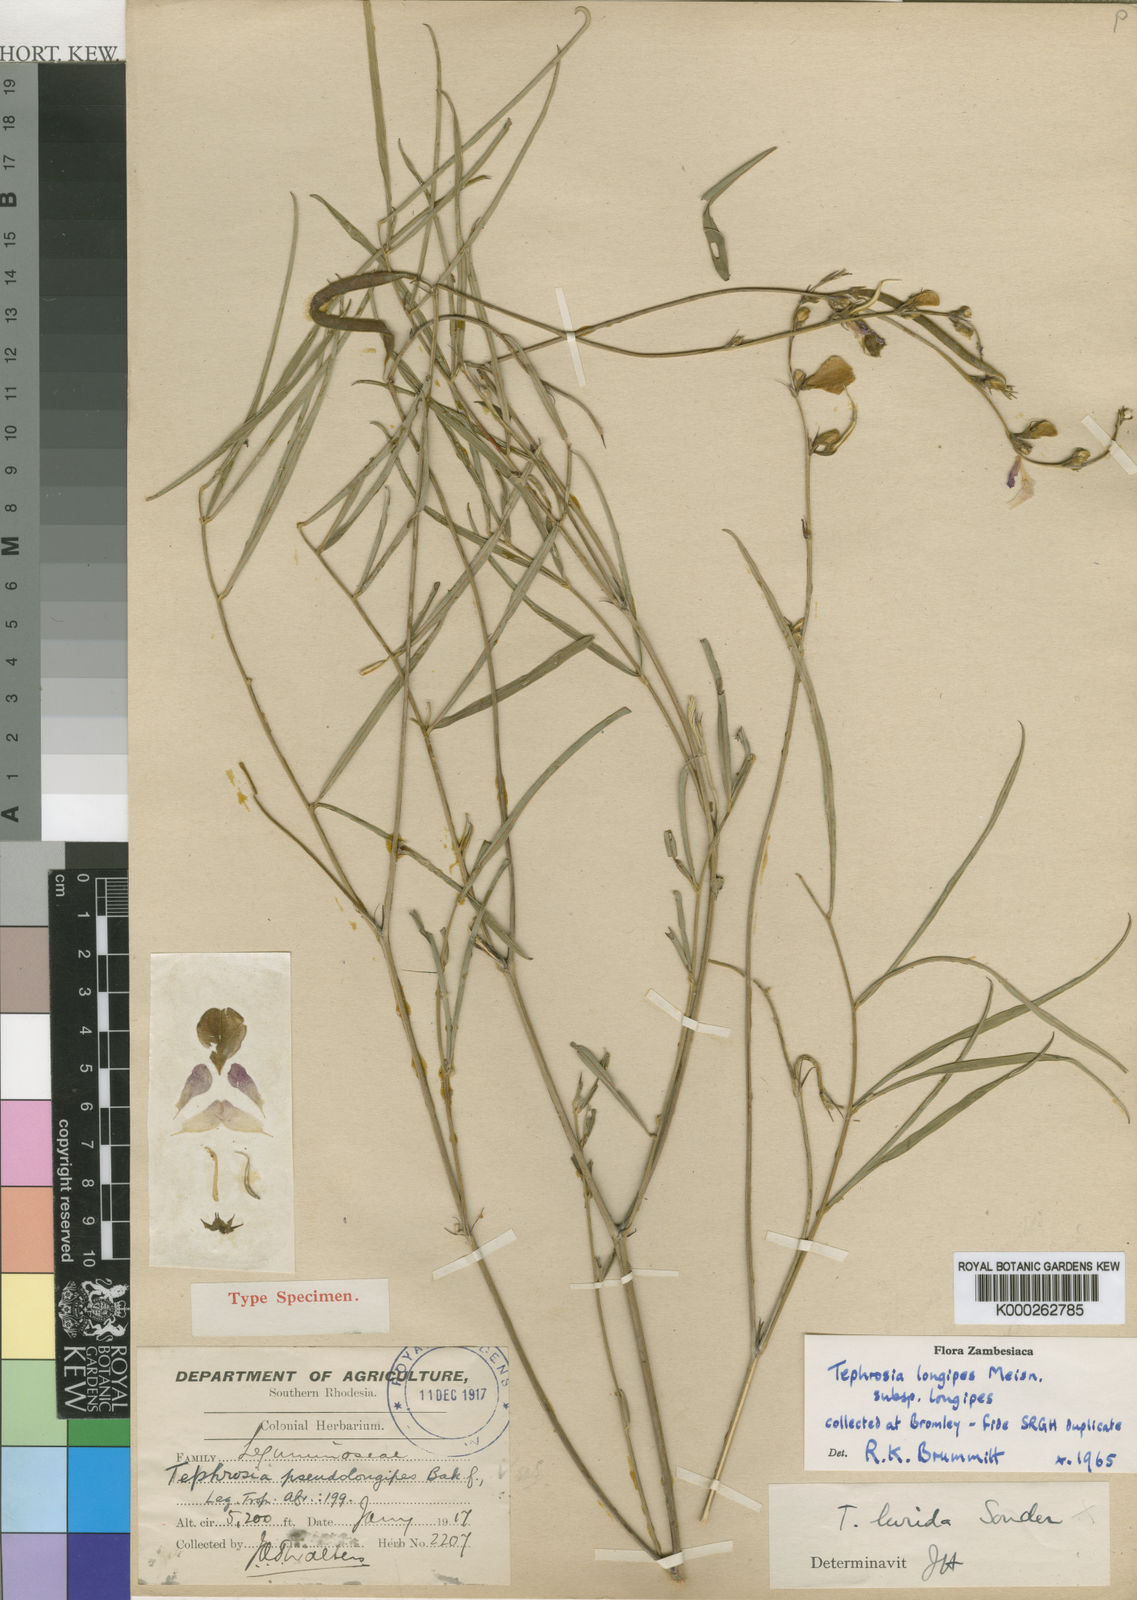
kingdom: Plantae
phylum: Tracheophyta
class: Magnoliopsida
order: Fabales
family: Fabaceae
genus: Tephrosia
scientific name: Tephrosia longipes
